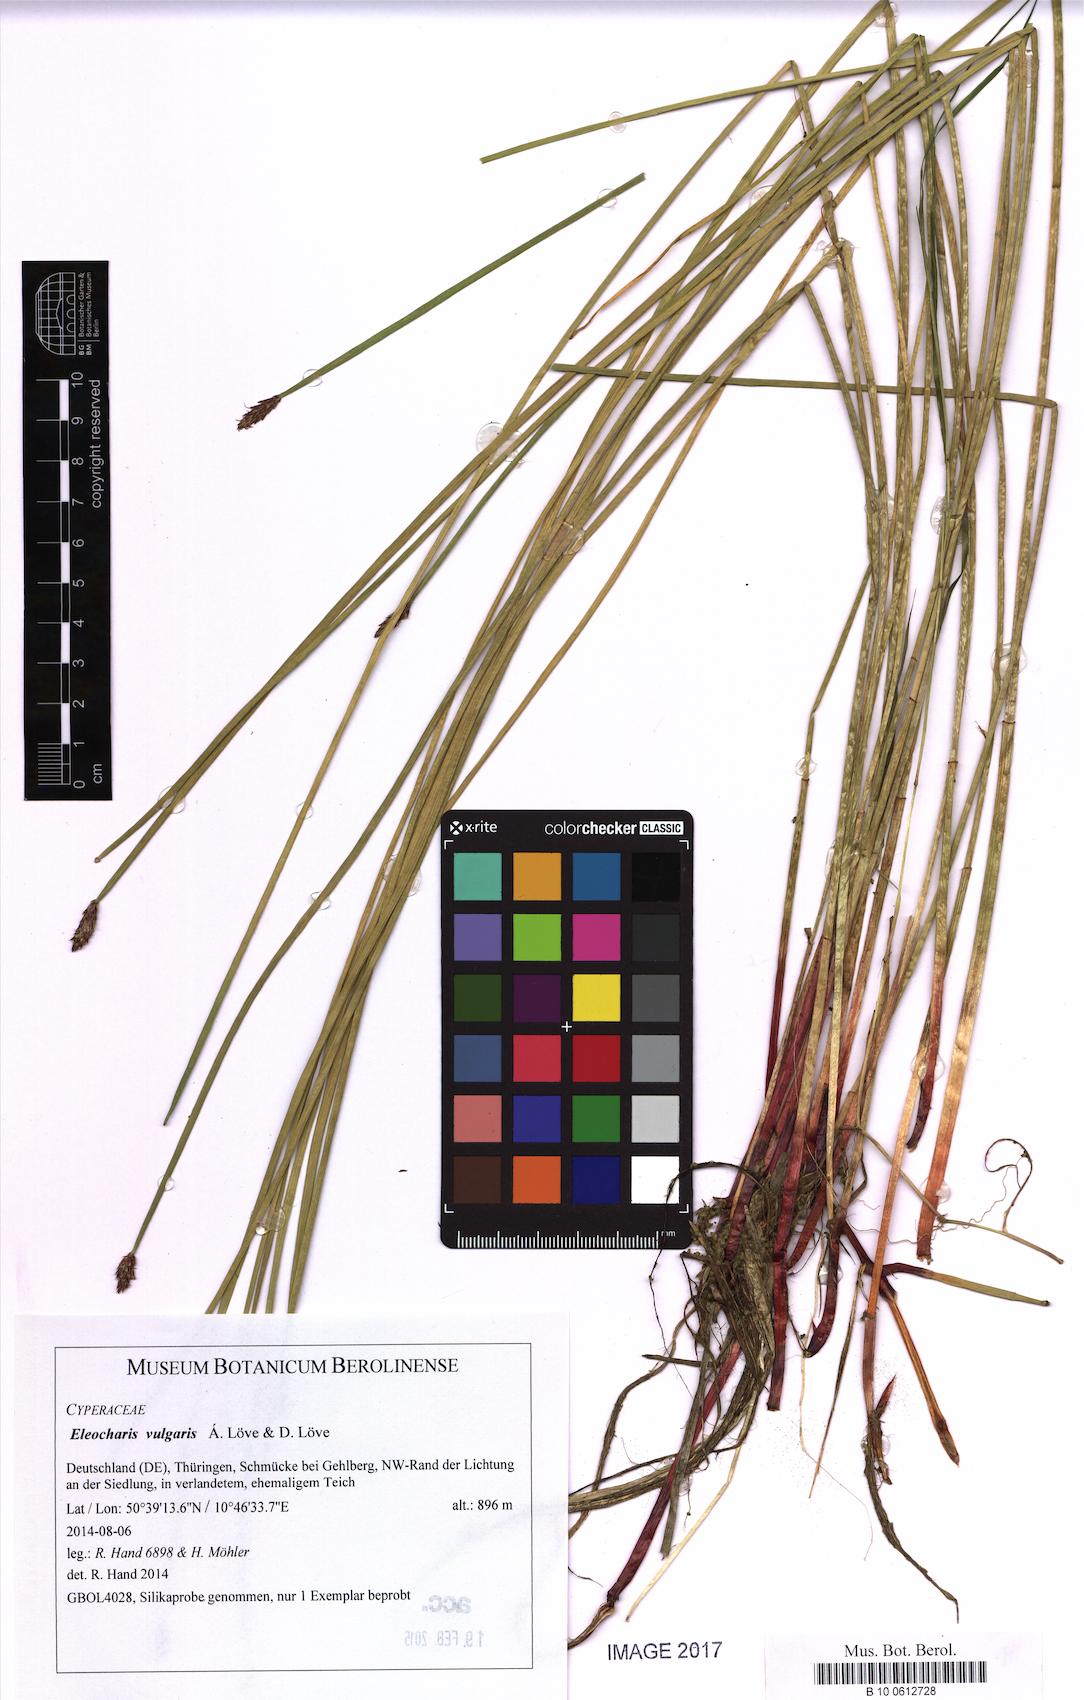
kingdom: Plantae
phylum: Tracheophyta
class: Liliopsida
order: Poales
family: Cyperaceae
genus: Eleocharis
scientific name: Eleocharis palustris
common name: Common spike-rush
